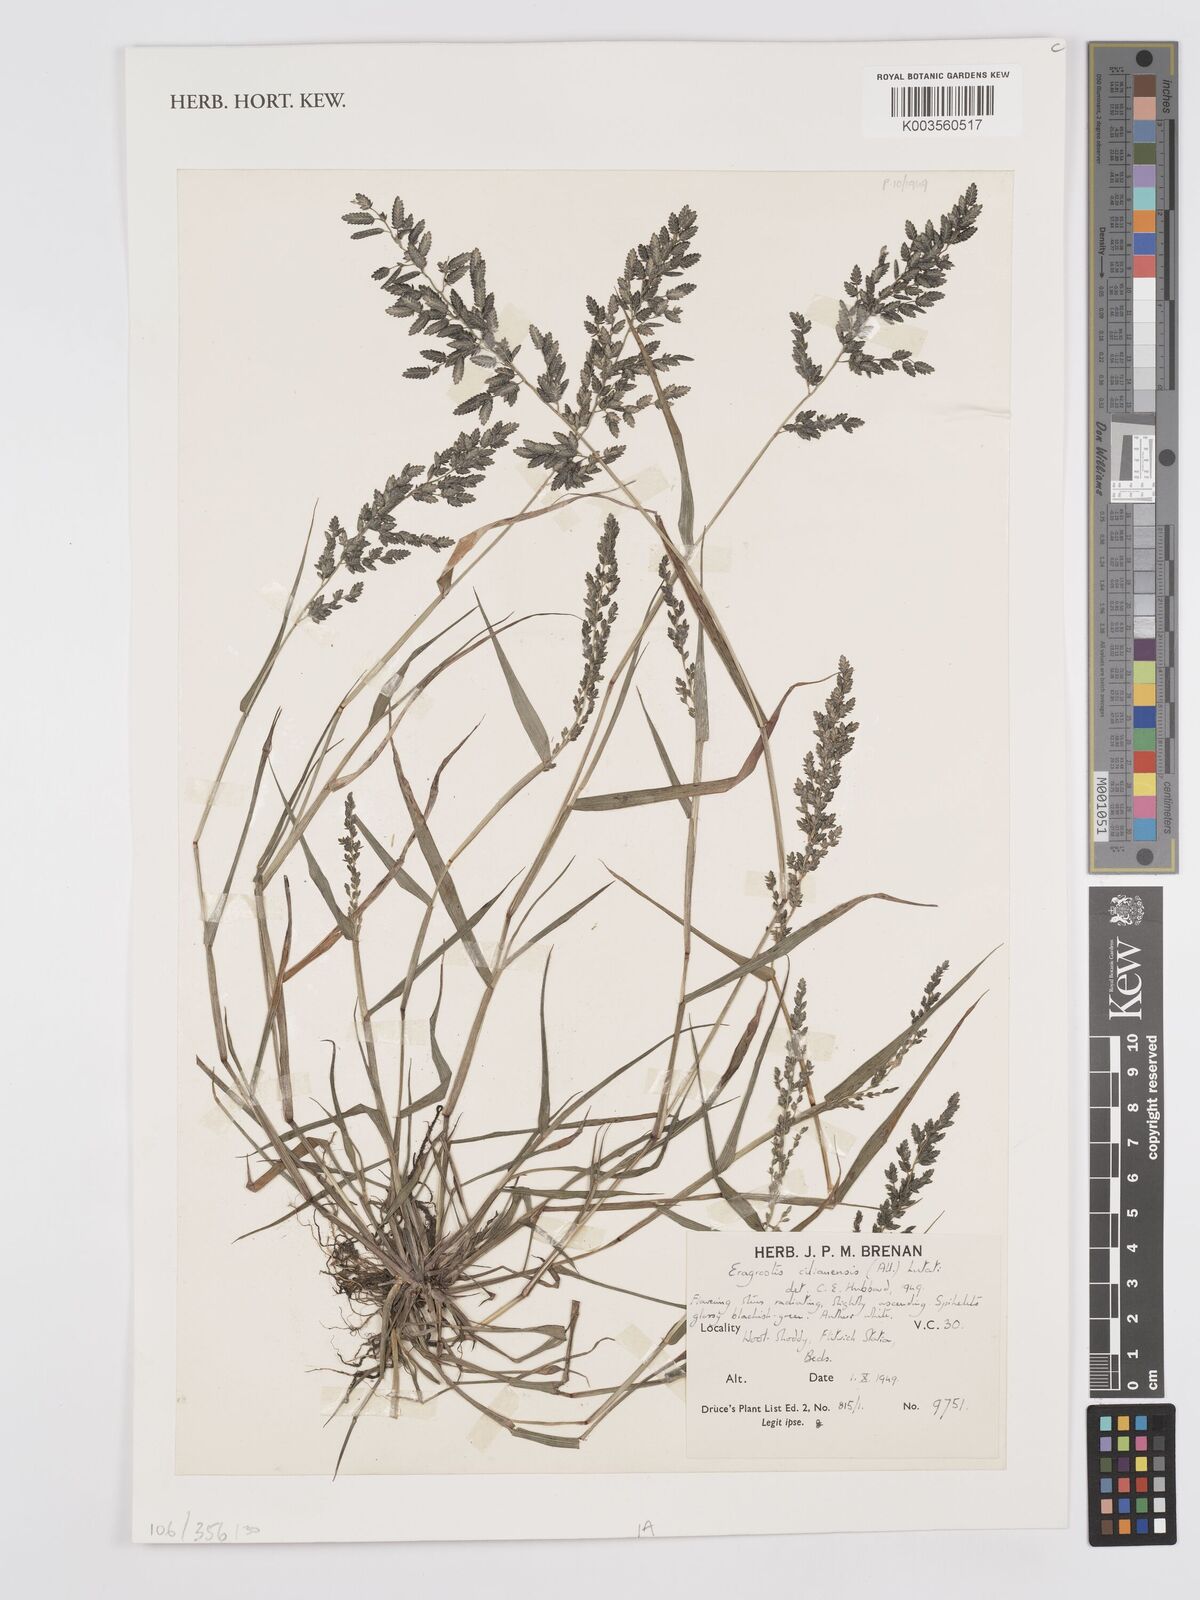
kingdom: Plantae
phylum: Tracheophyta
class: Liliopsida
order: Poales
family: Poaceae
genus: Eragrostis
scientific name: Eragrostis cilianensis
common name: Stinkgrass
